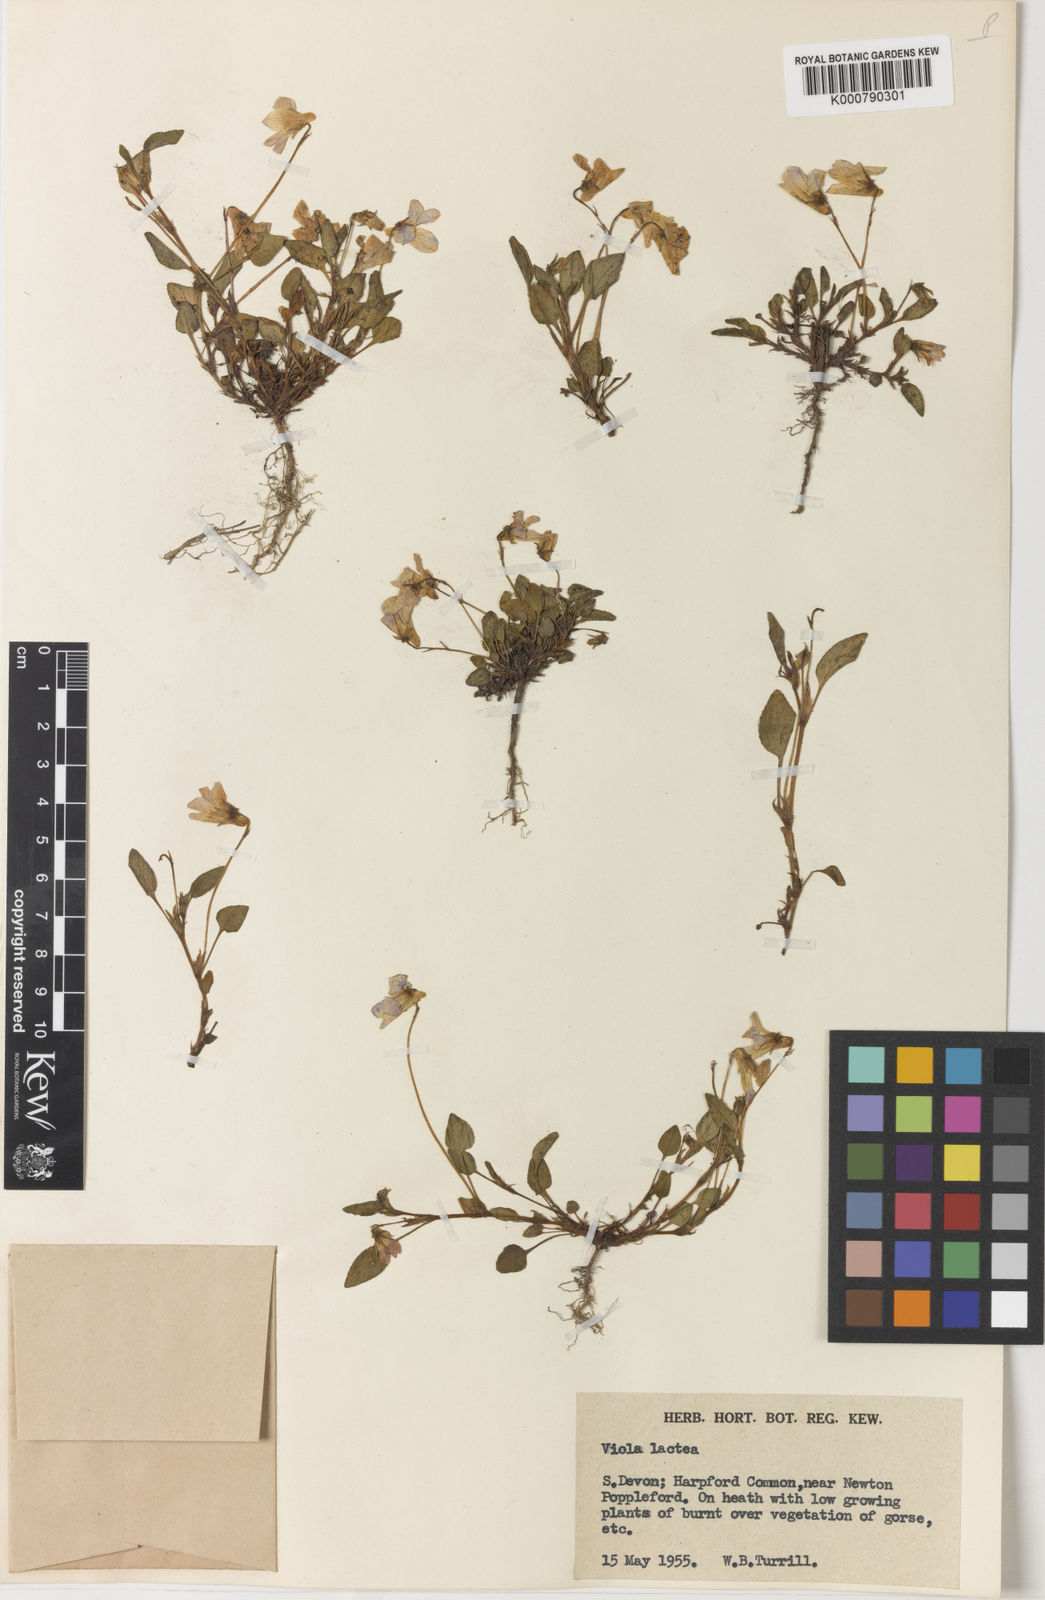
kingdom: Plantae
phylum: Tracheophyta
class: Magnoliopsida
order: Malpighiales
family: Violaceae
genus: Viola
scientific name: Viola lactea
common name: Pale dog-violet
